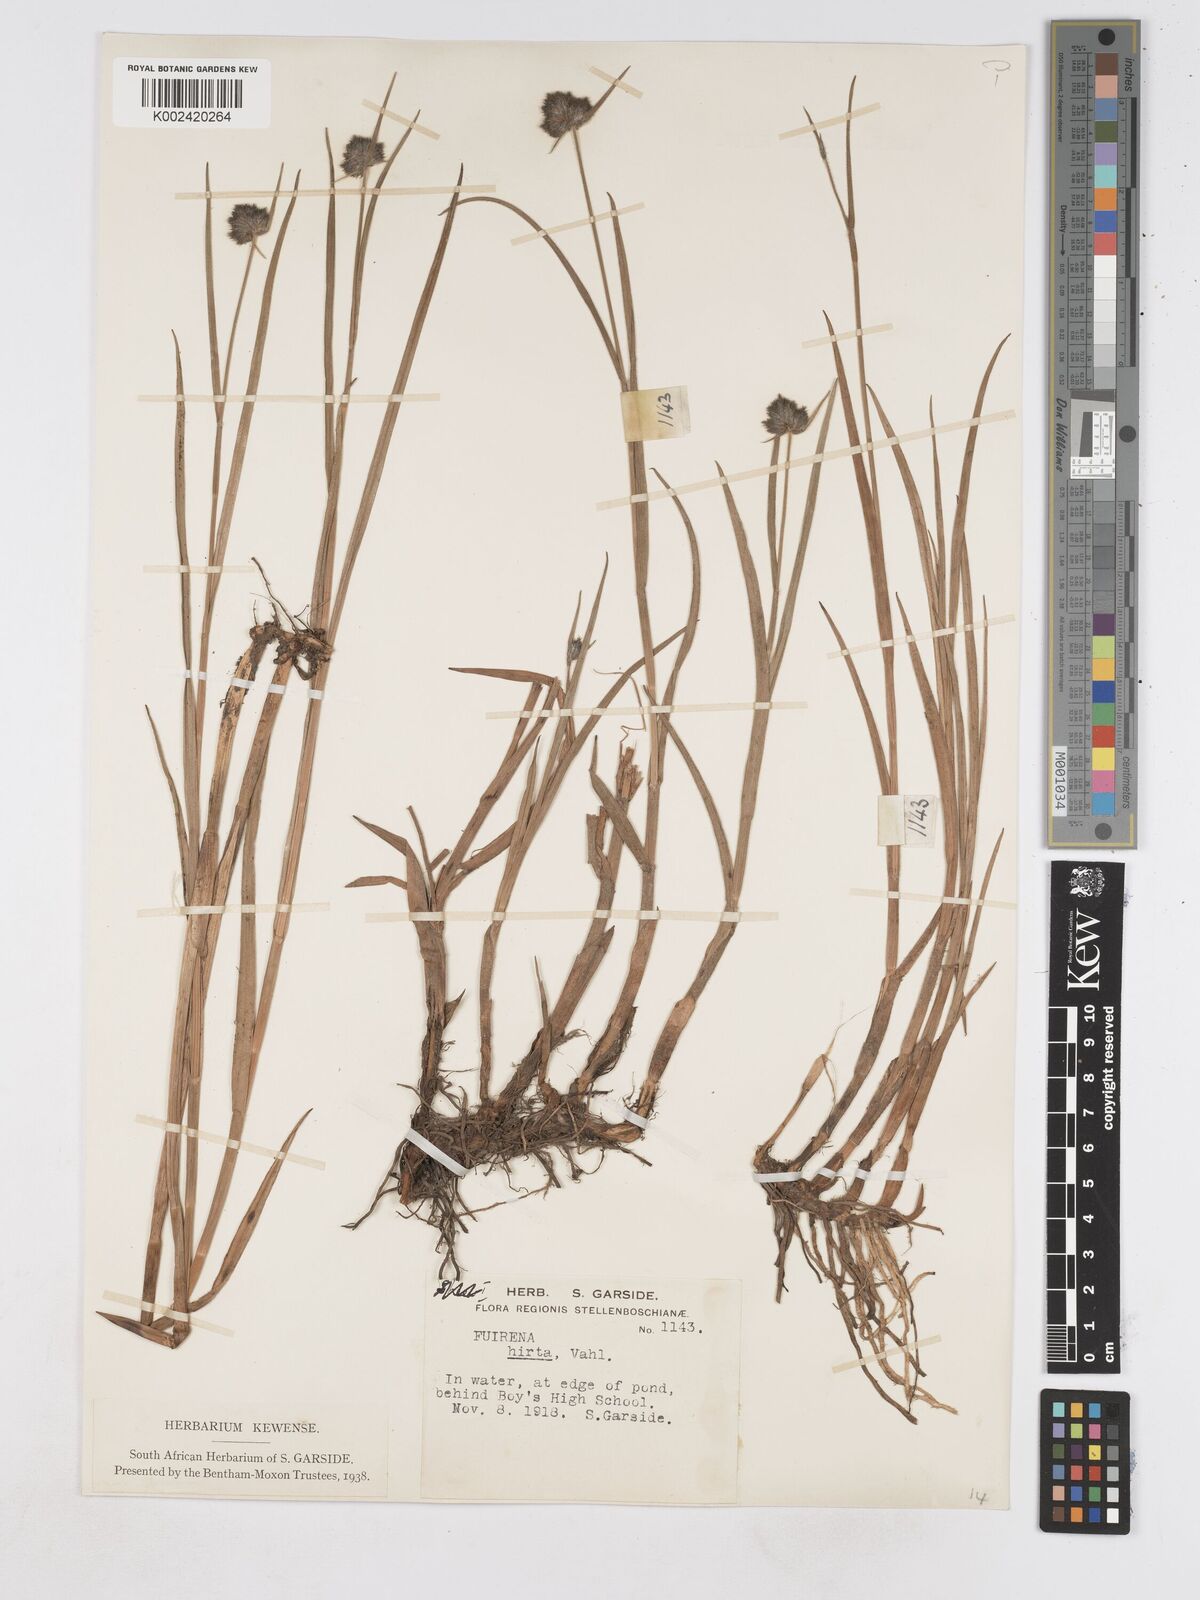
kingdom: Plantae
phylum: Tracheophyta
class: Liliopsida
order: Poales
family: Cyperaceae
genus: Fuirena
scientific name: Fuirena hirsuta
